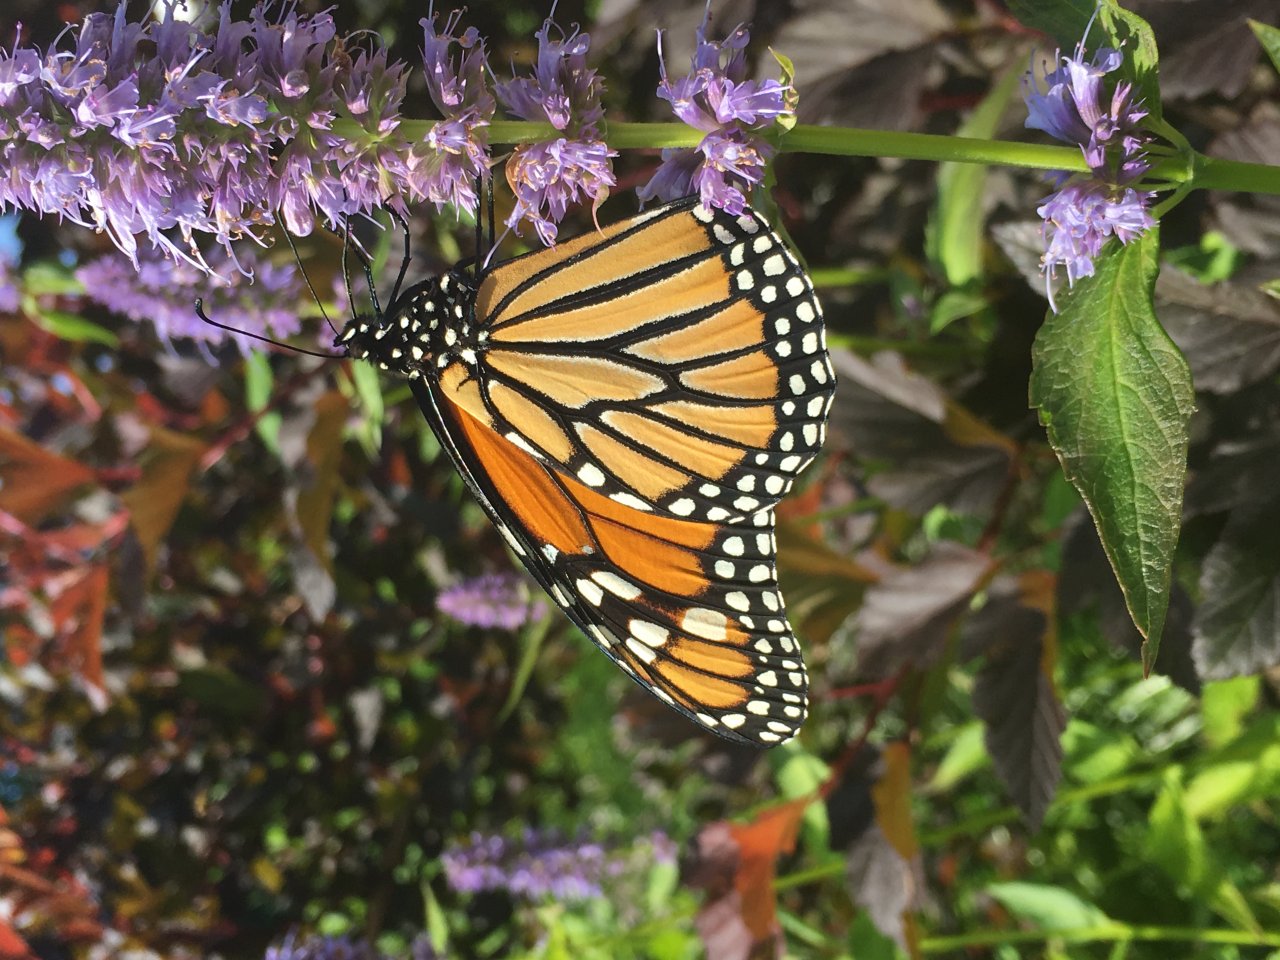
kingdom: Animalia
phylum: Arthropoda
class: Insecta
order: Lepidoptera
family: Nymphalidae
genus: Danaus
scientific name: Danaus plexippus
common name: Monarch
